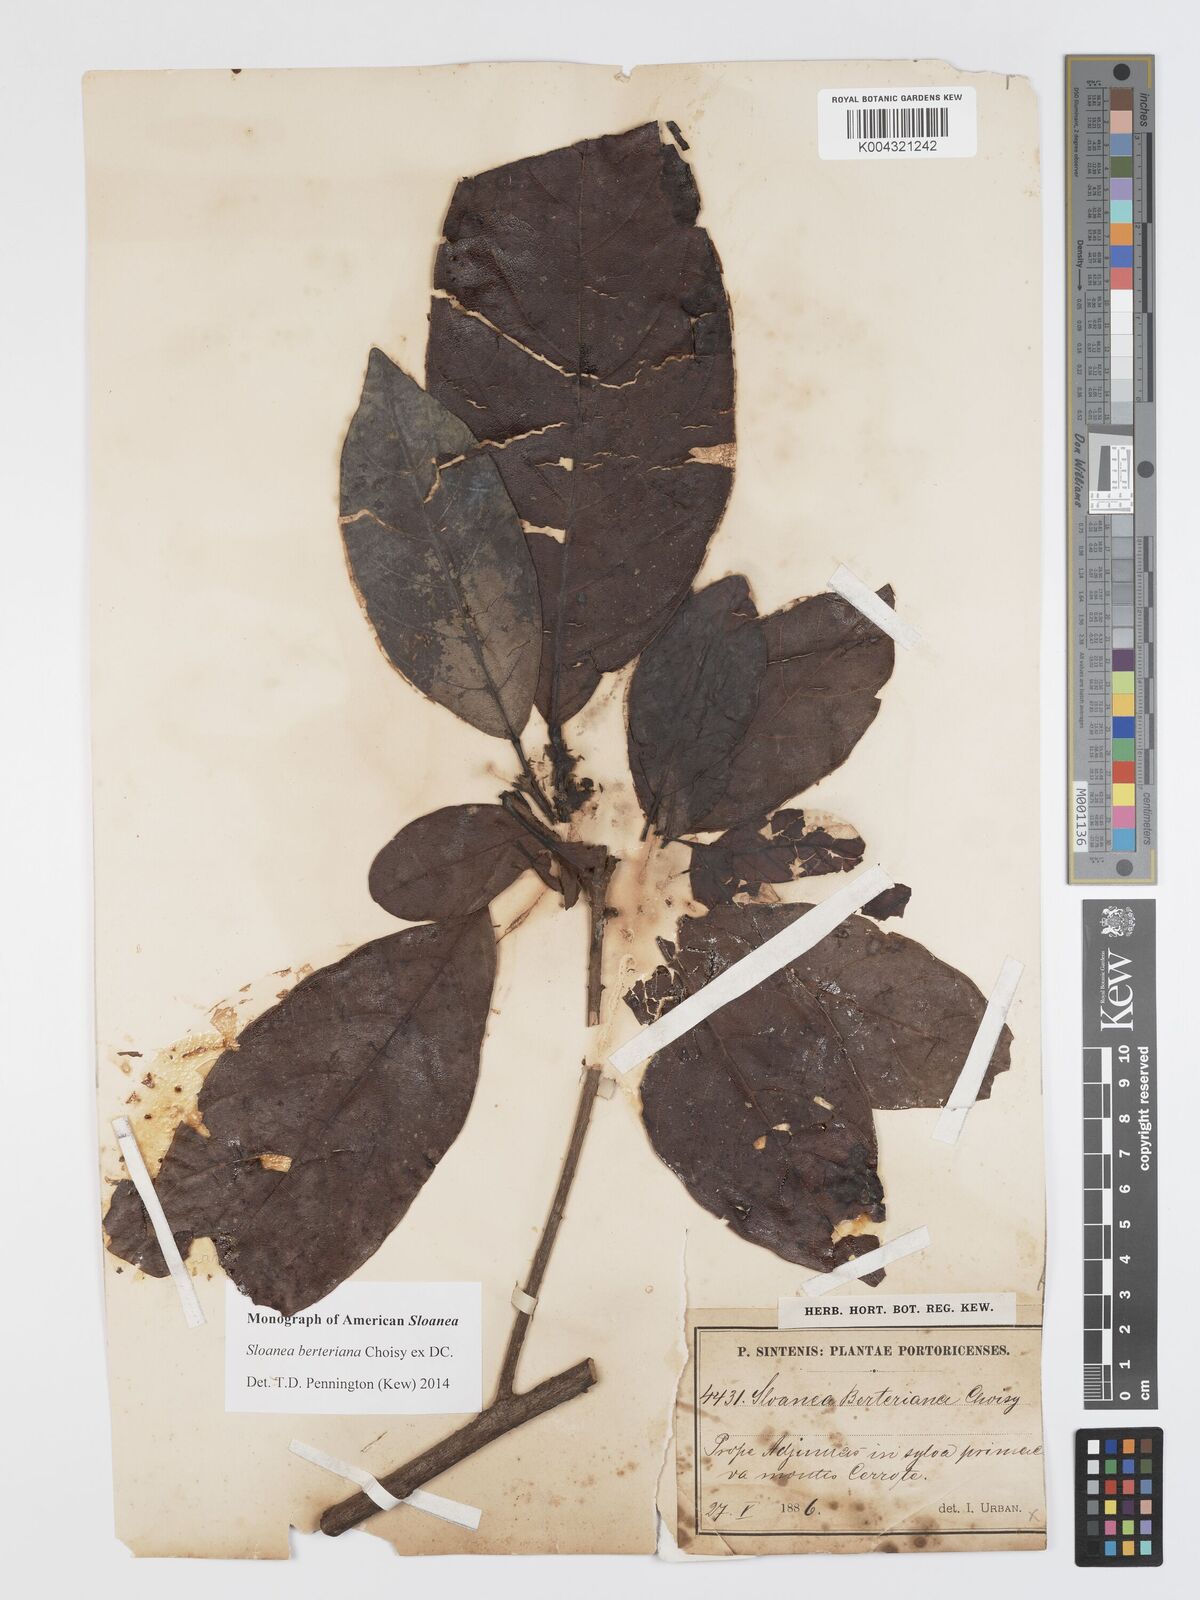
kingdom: Plantae
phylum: Tracheophyta
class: Magnoliopsida
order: Oxalidales
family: Elaeocarpaceae
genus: Sloanea
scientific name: Sloanea berteroana
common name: Bullwood
